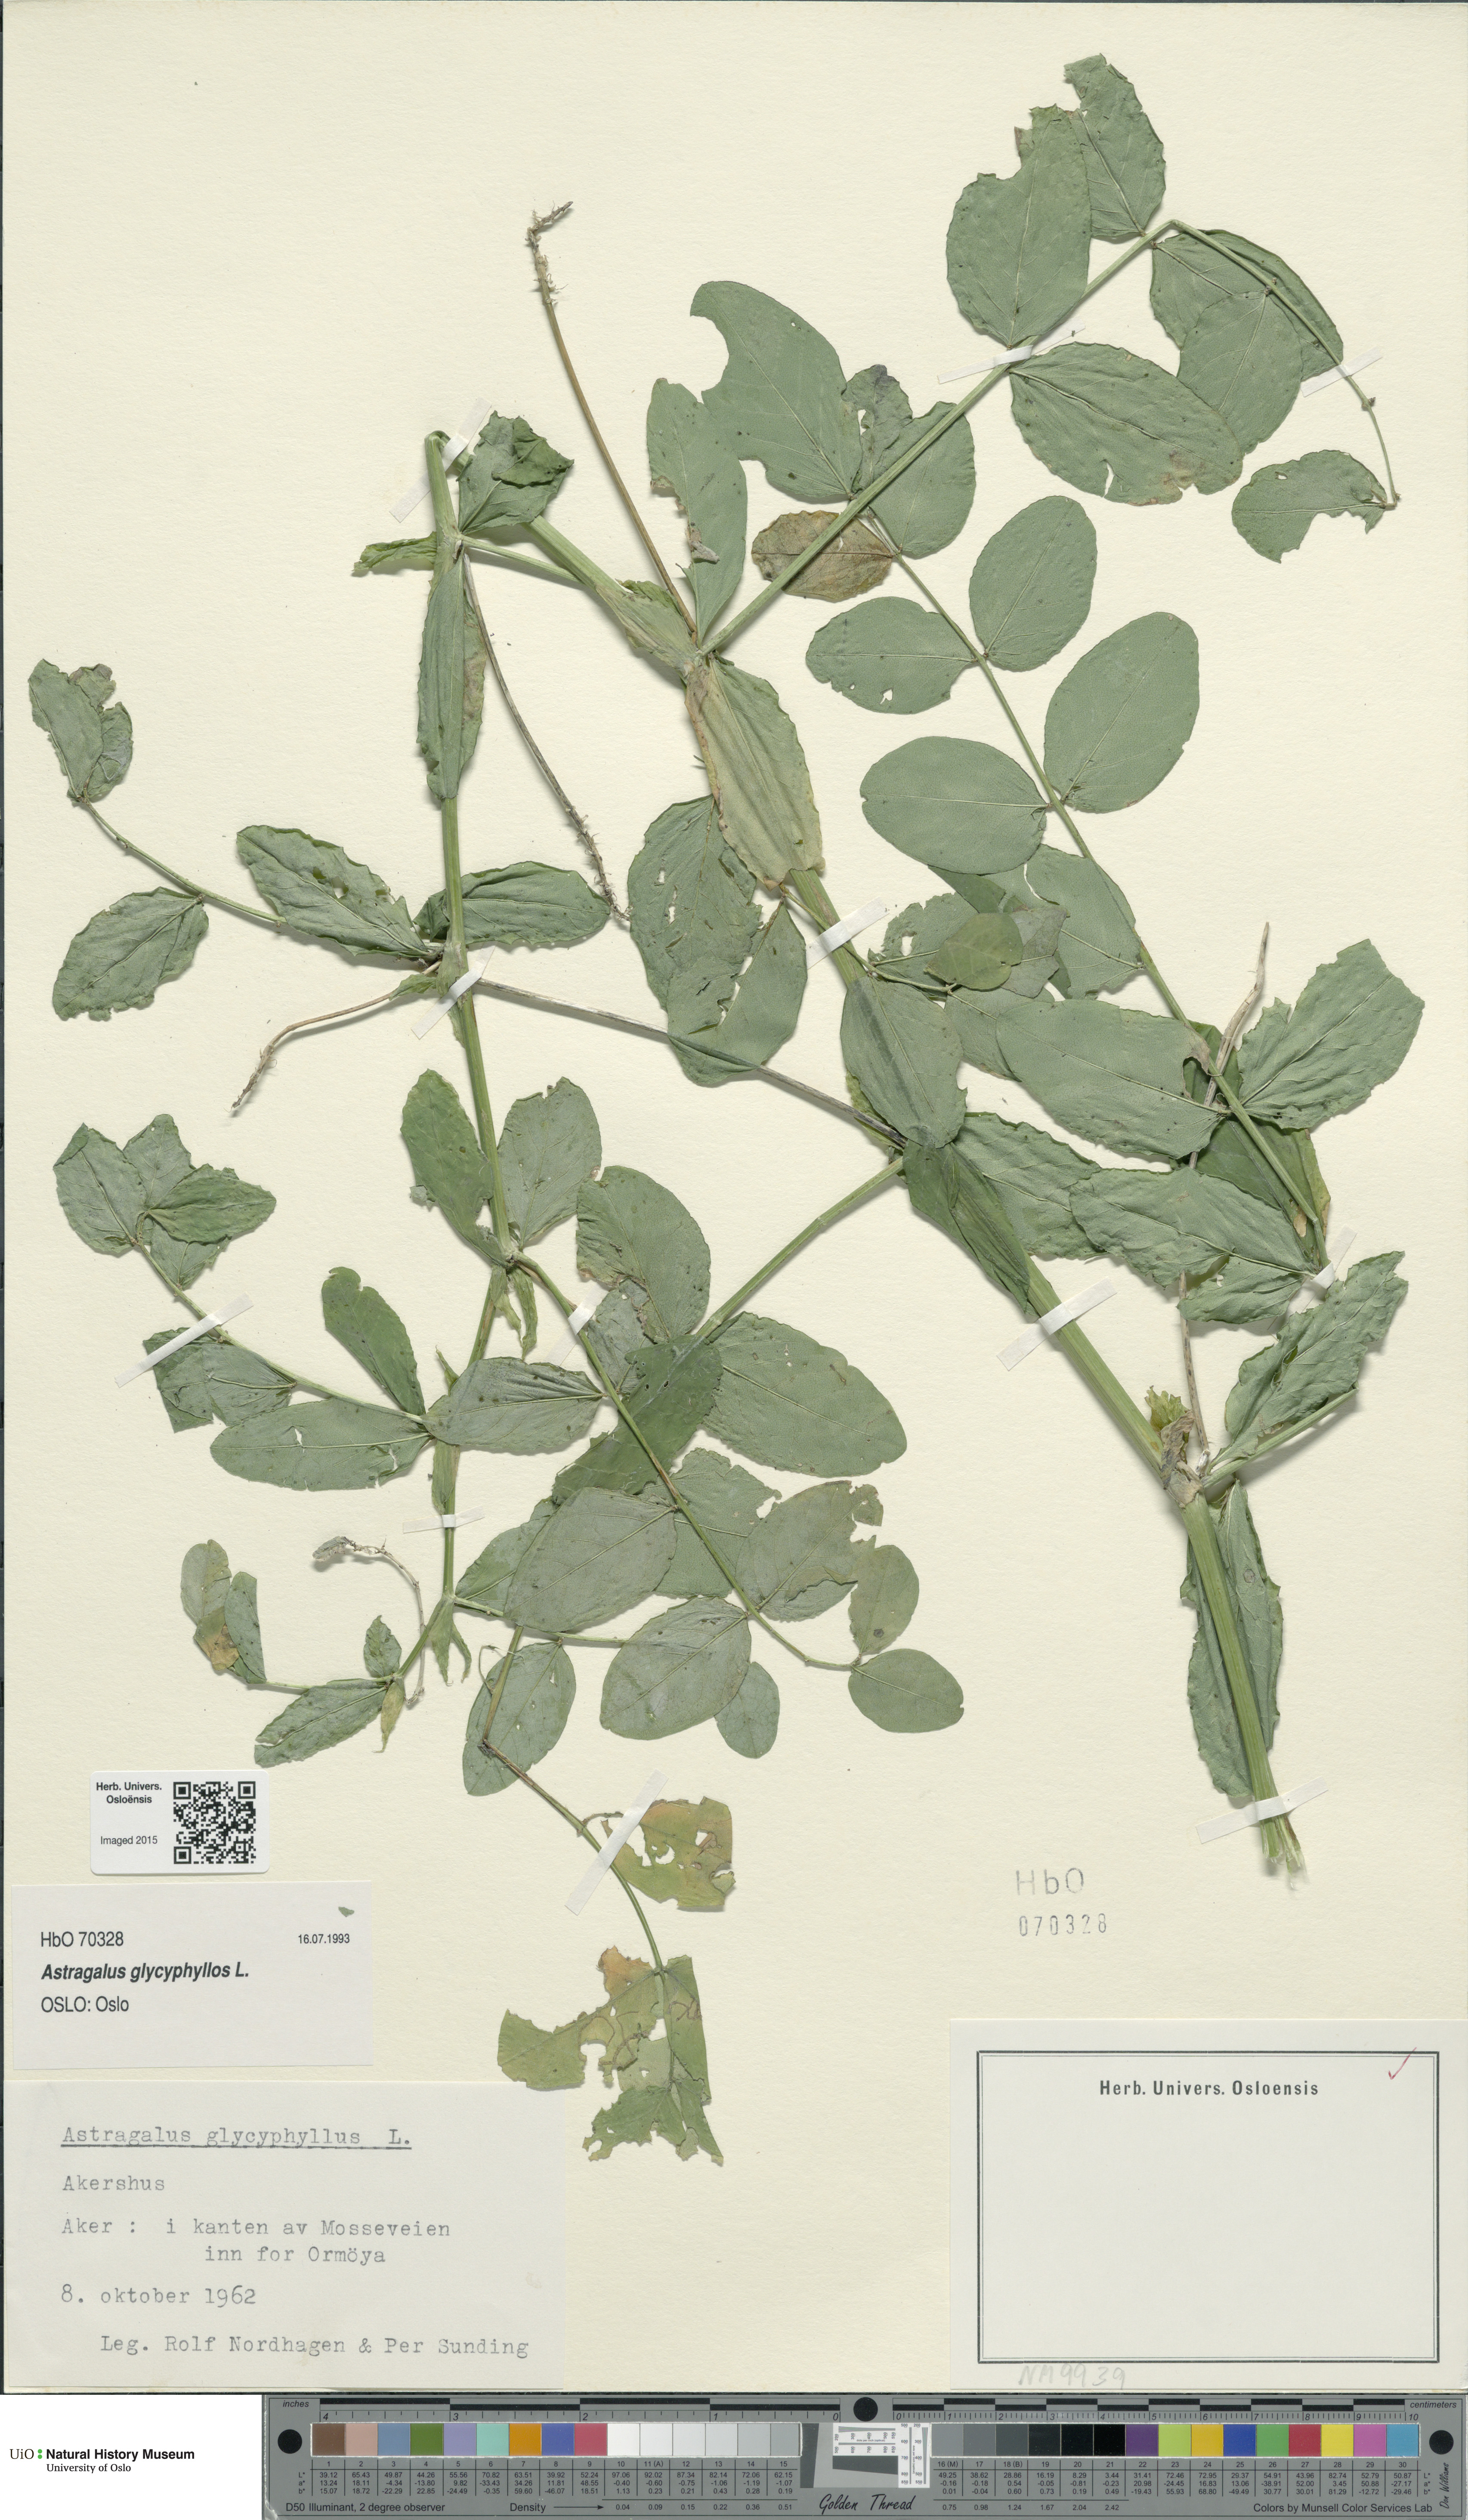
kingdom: Plantae
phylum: Tracheophyta
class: Magnoliopsida
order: Fabales
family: Fabaceae
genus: Astragalus
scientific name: Astragalus glycyphyllos
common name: Wild liquorice
